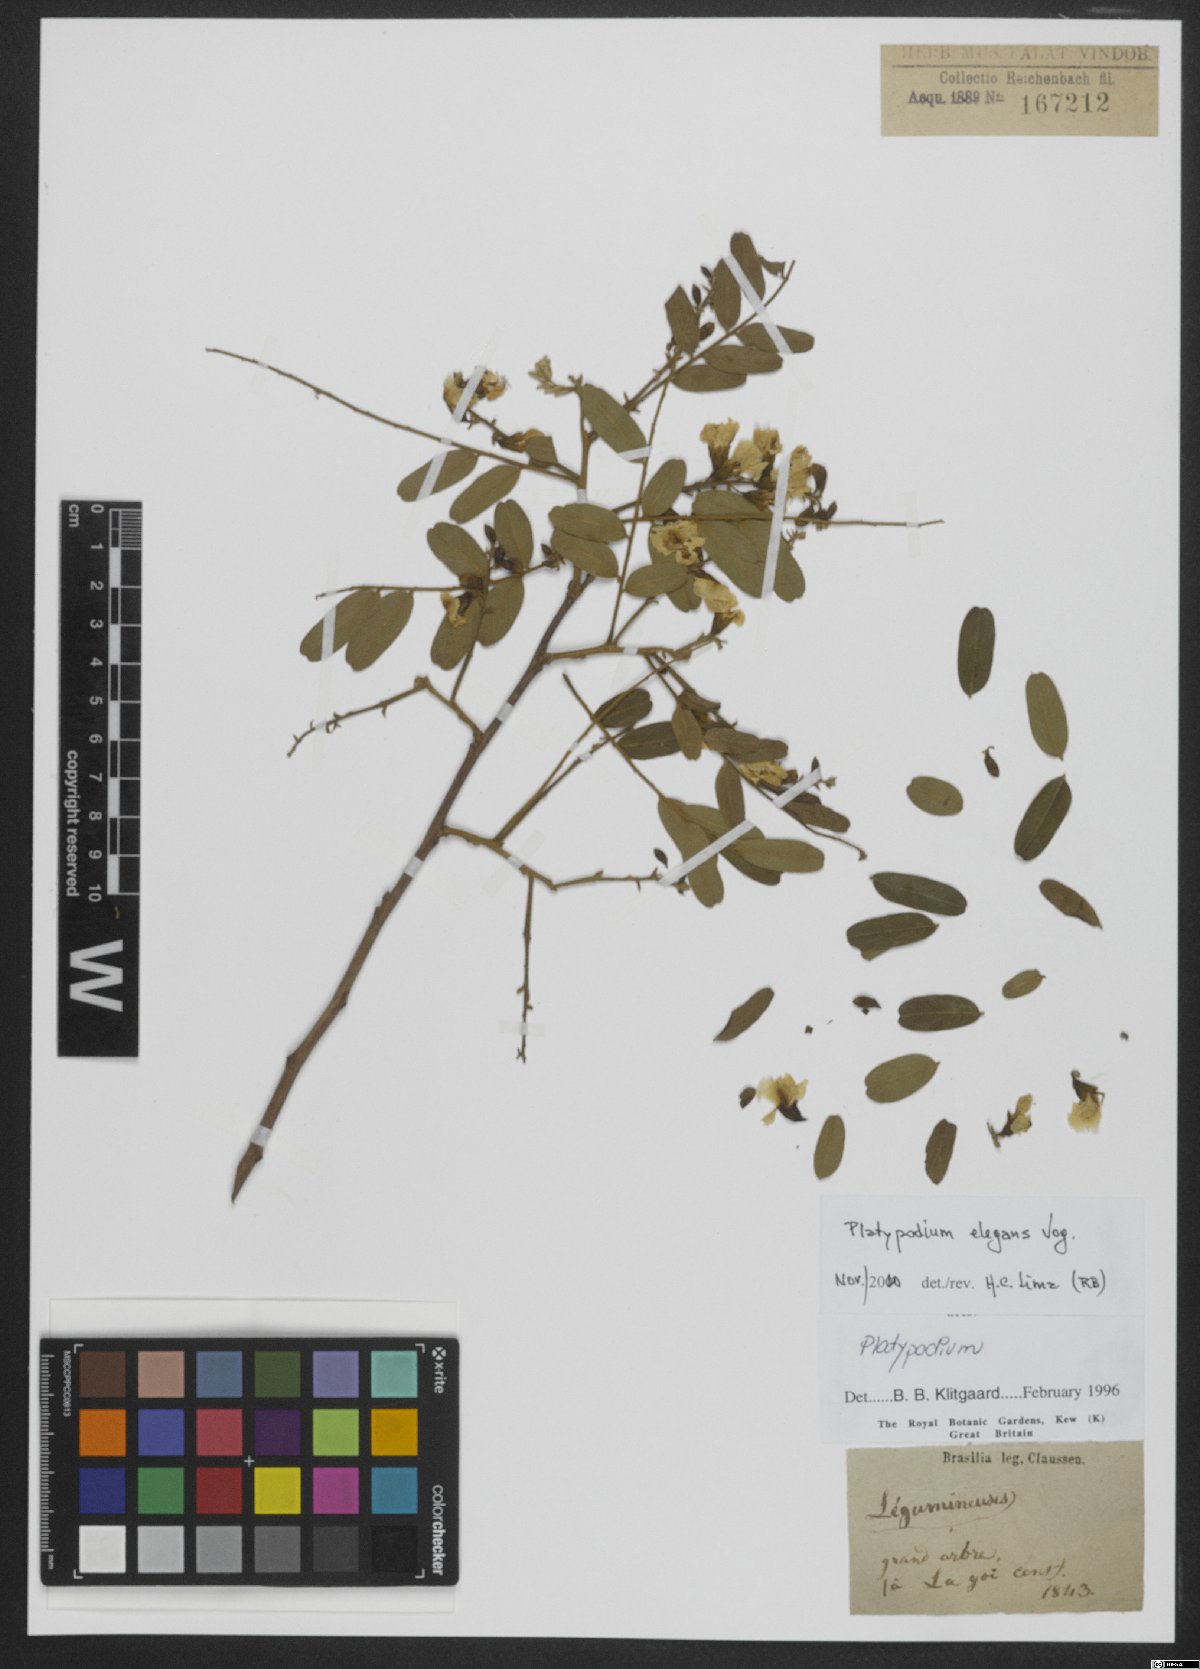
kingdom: Plantae
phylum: Tracheophyta
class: Magnoliopsida
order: Fabales
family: Fabaceae
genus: Platypodium
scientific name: Platypodium elegans
